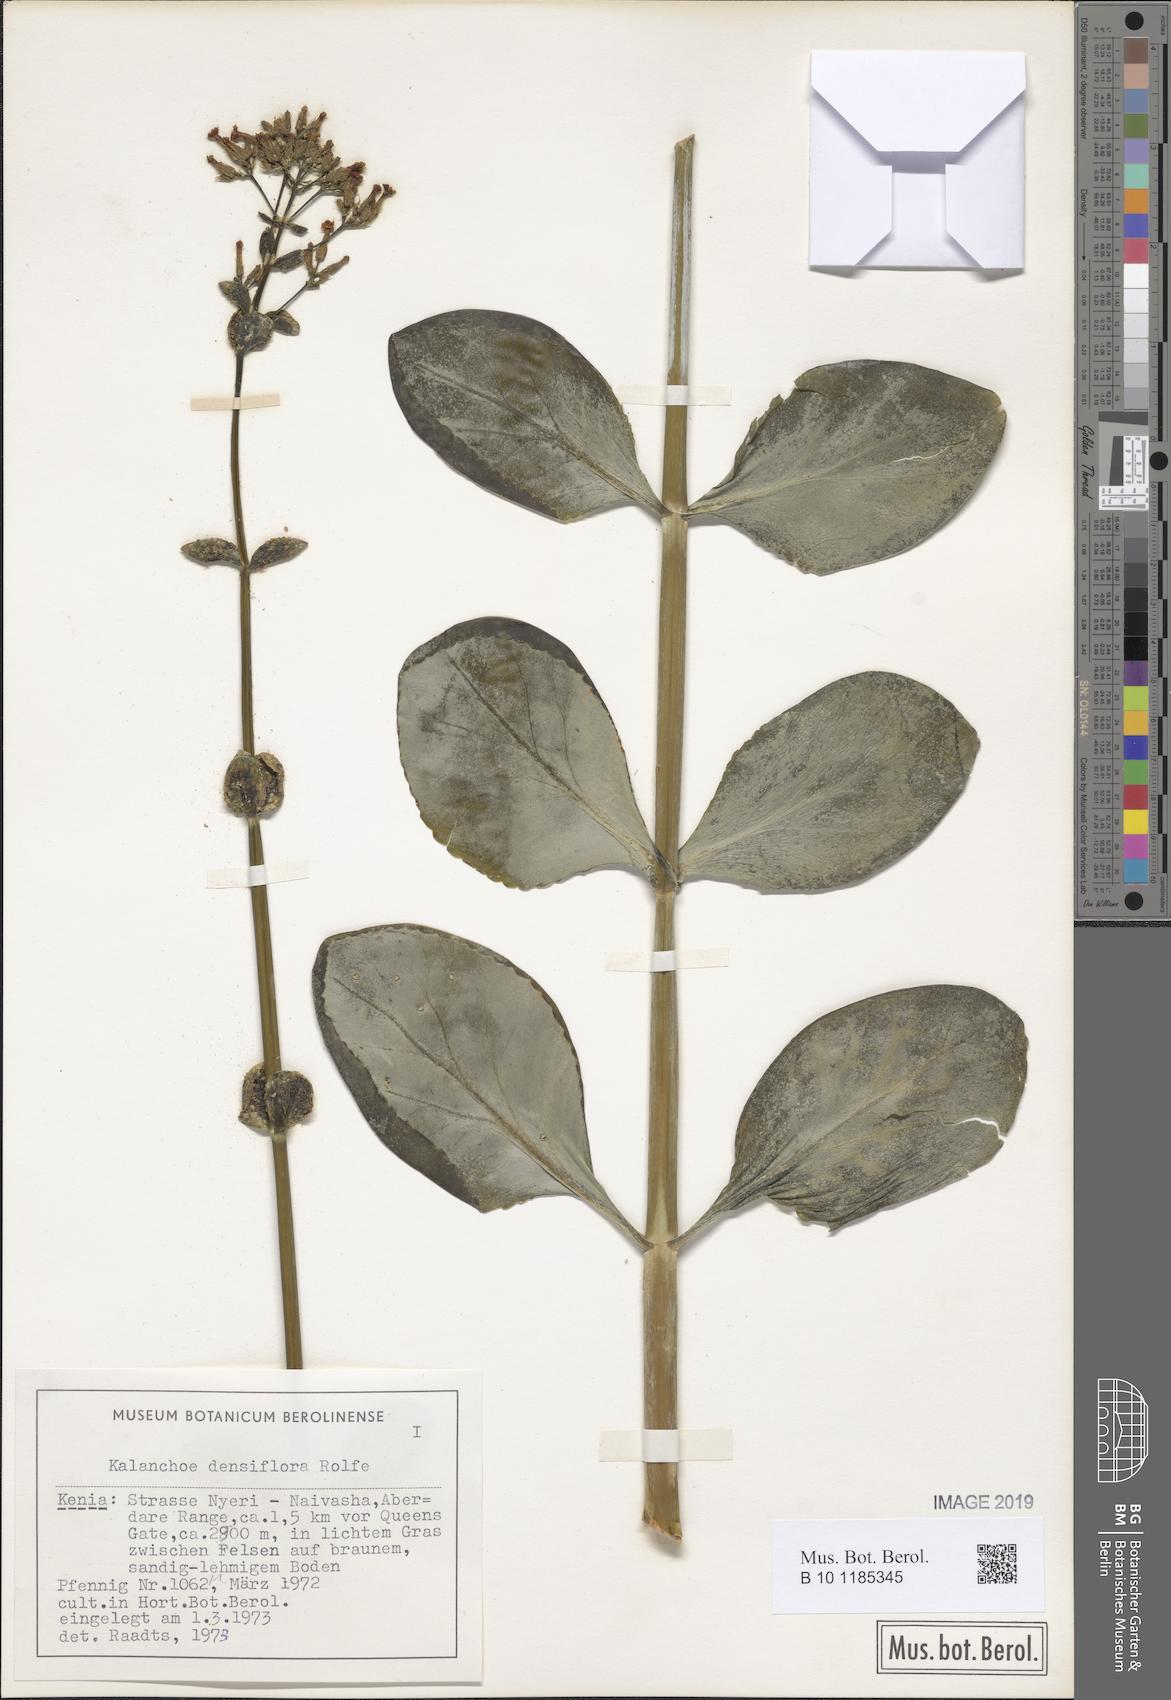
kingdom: Plantae
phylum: Tracheophyta
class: Magnoliopsida
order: Saxifragales
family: Crassulaceae
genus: Kalanchoe
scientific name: Kalanchoe densiflora
